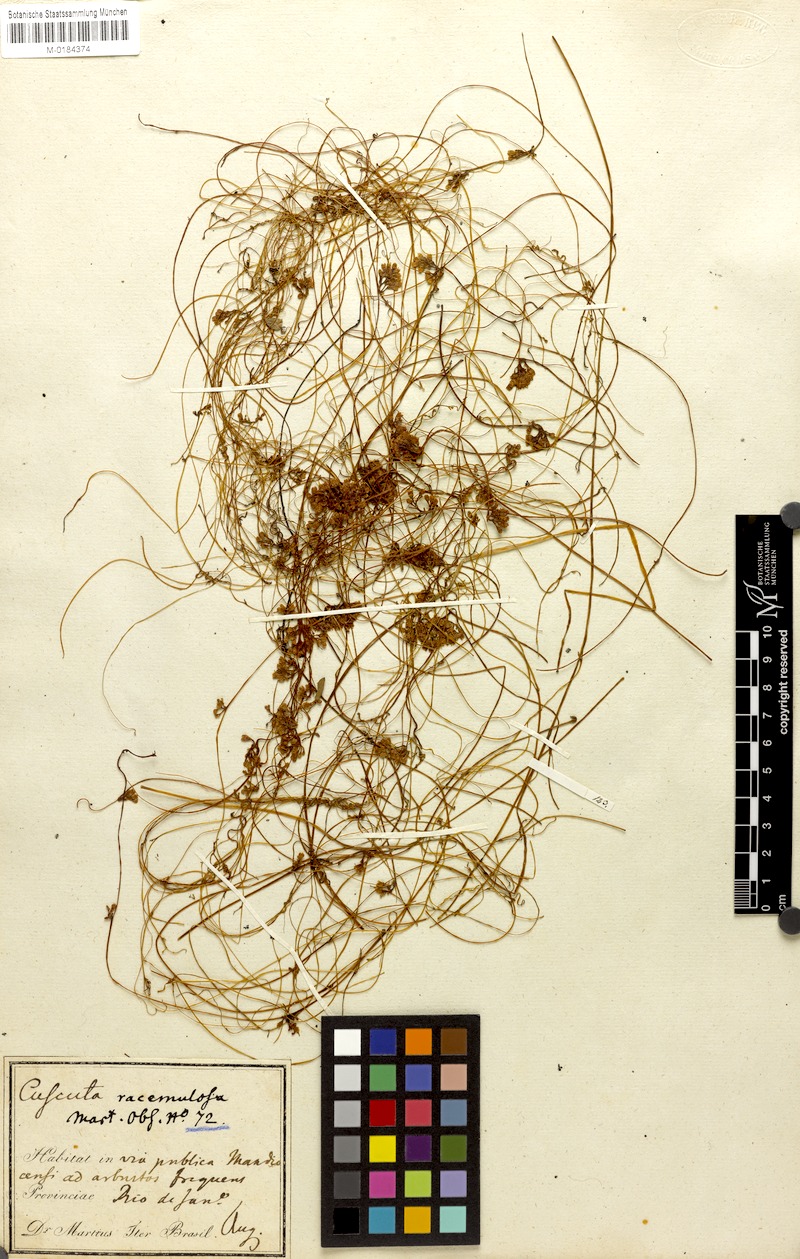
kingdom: Plantae
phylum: Tracheophyta
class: Magnoliopsida
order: Solanales
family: Convolvulaceae
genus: Cuscuta
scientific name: Cuscuta racemosa
